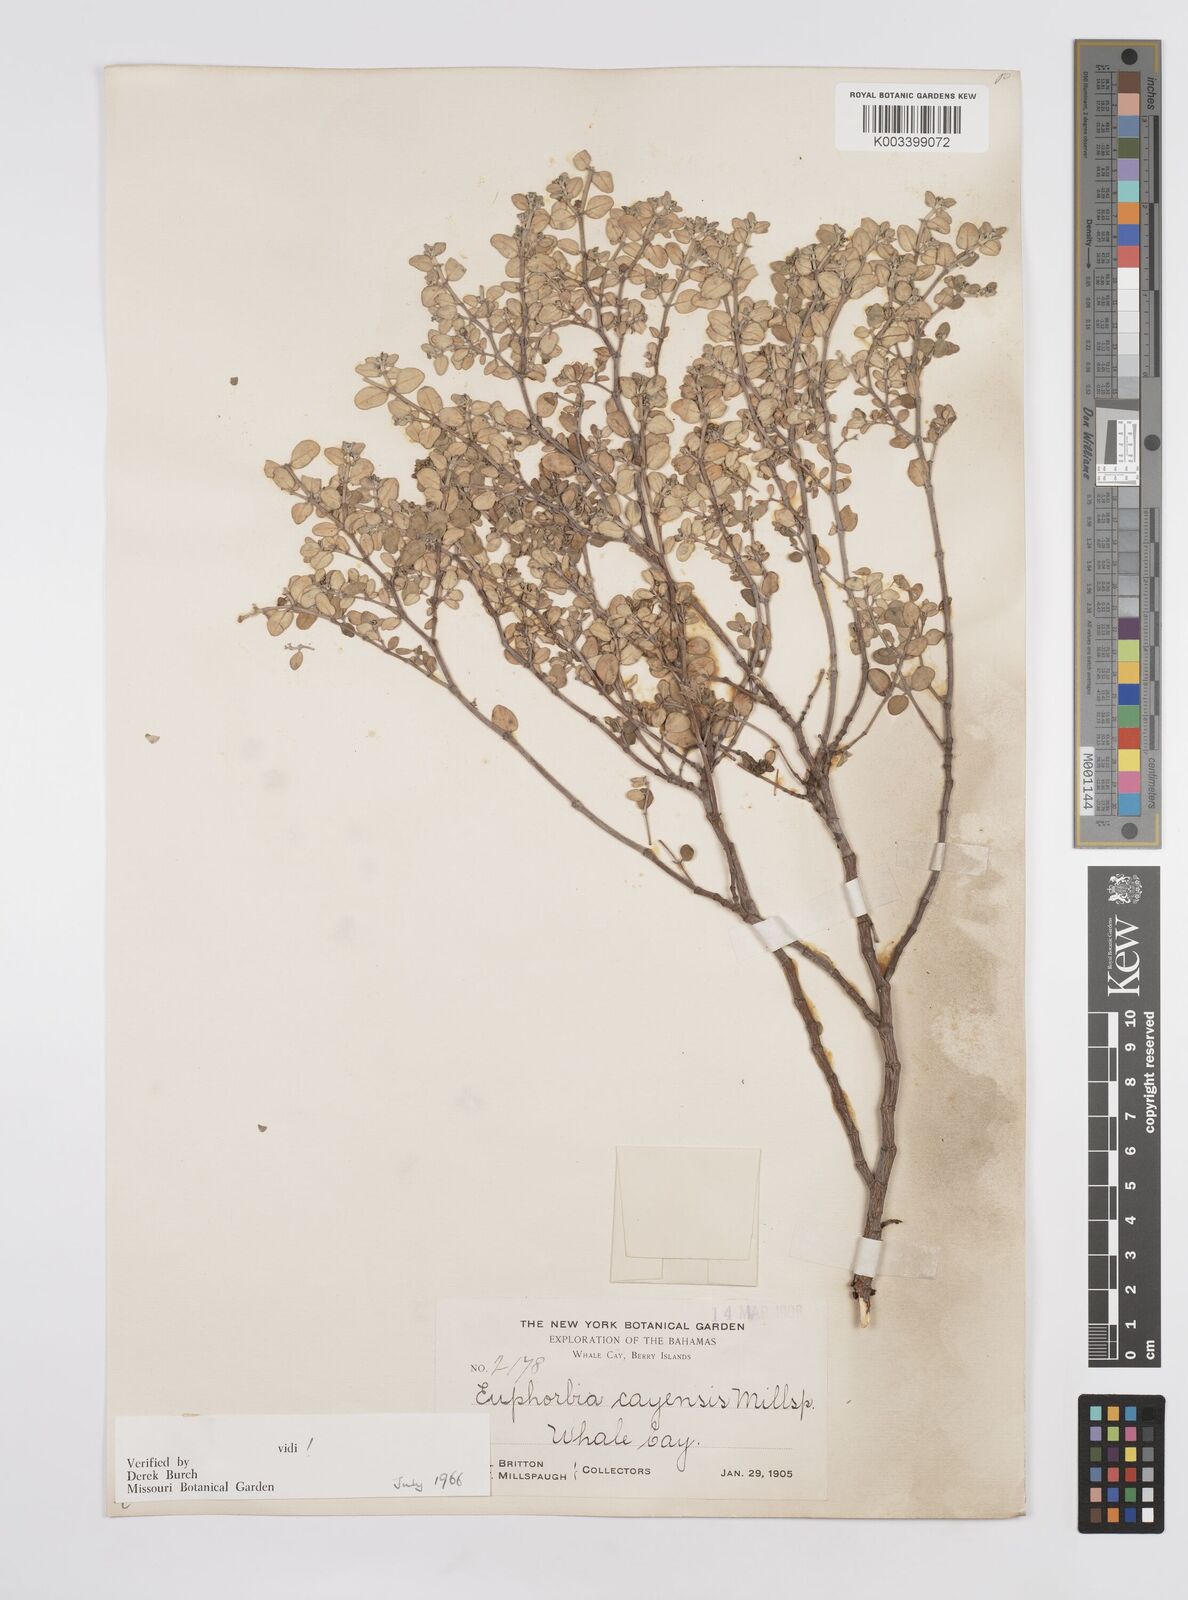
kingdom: Plantae
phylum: Tracheophyta
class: Magnoliopsida
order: Malpighiales
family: Euphorbiaceae
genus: Euphorbia
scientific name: Euphorbia cayensis
